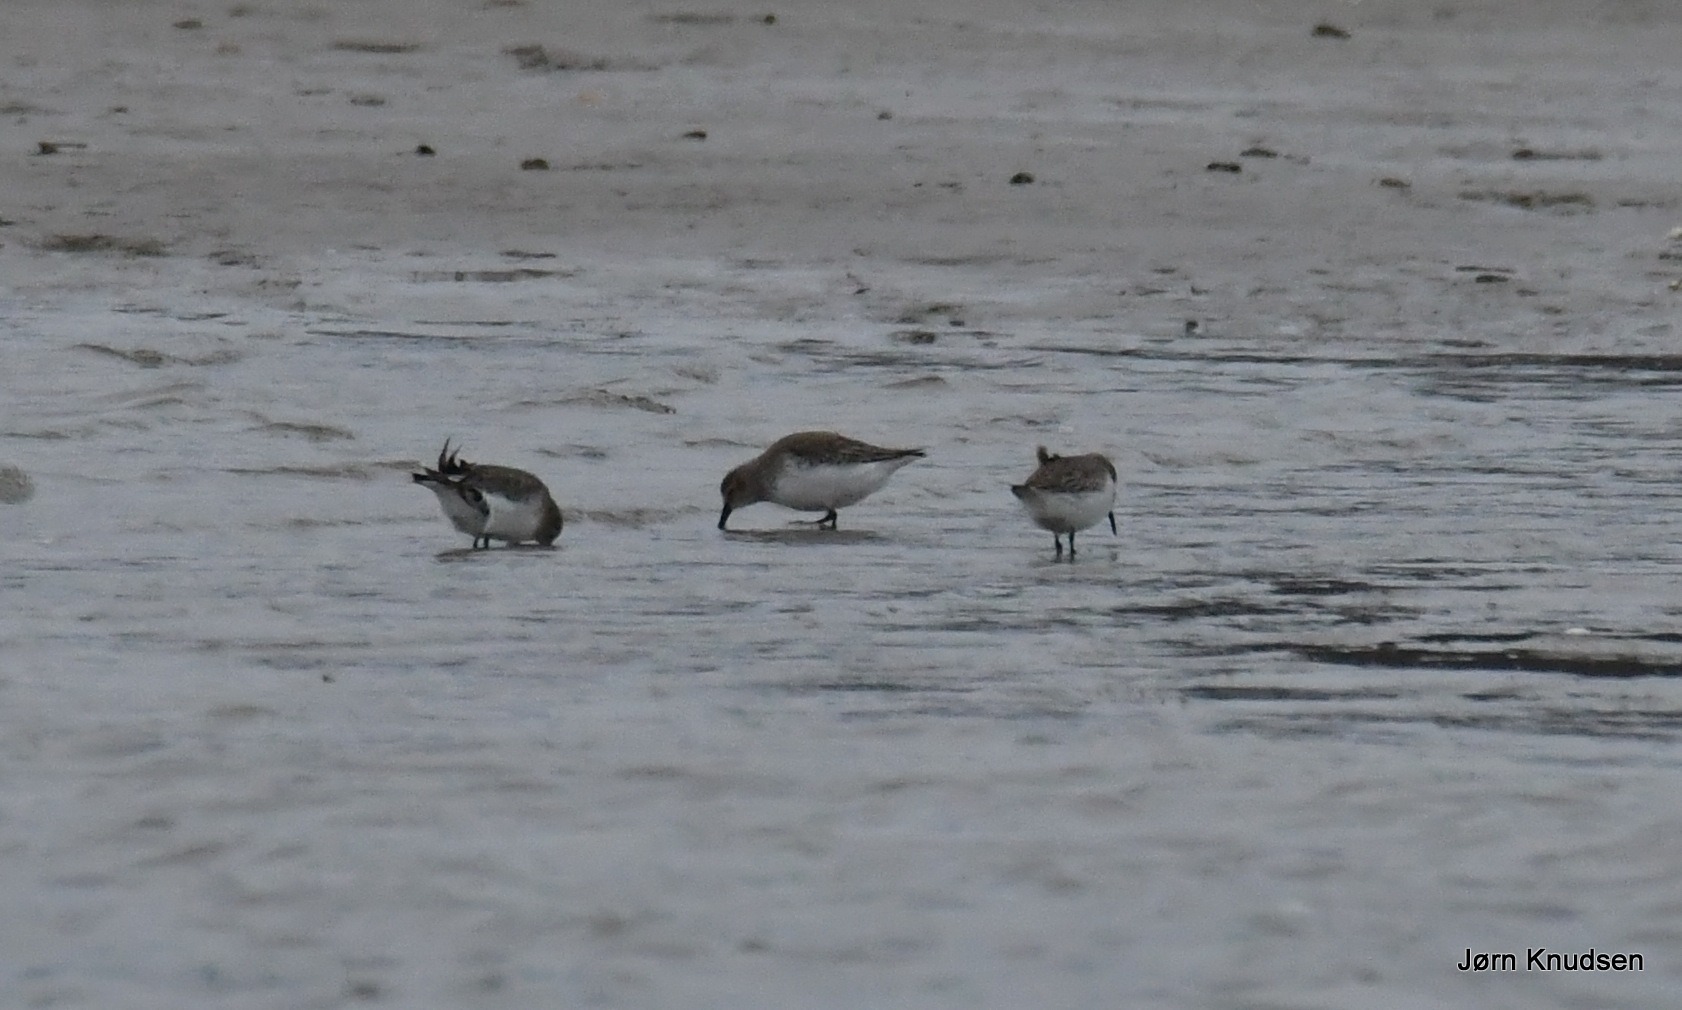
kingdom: Animalia
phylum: Chordata
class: Aves
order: Charadriiformes
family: Scolopacidae
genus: Calidris
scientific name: Calidris alpina
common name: Almindelig ryle
